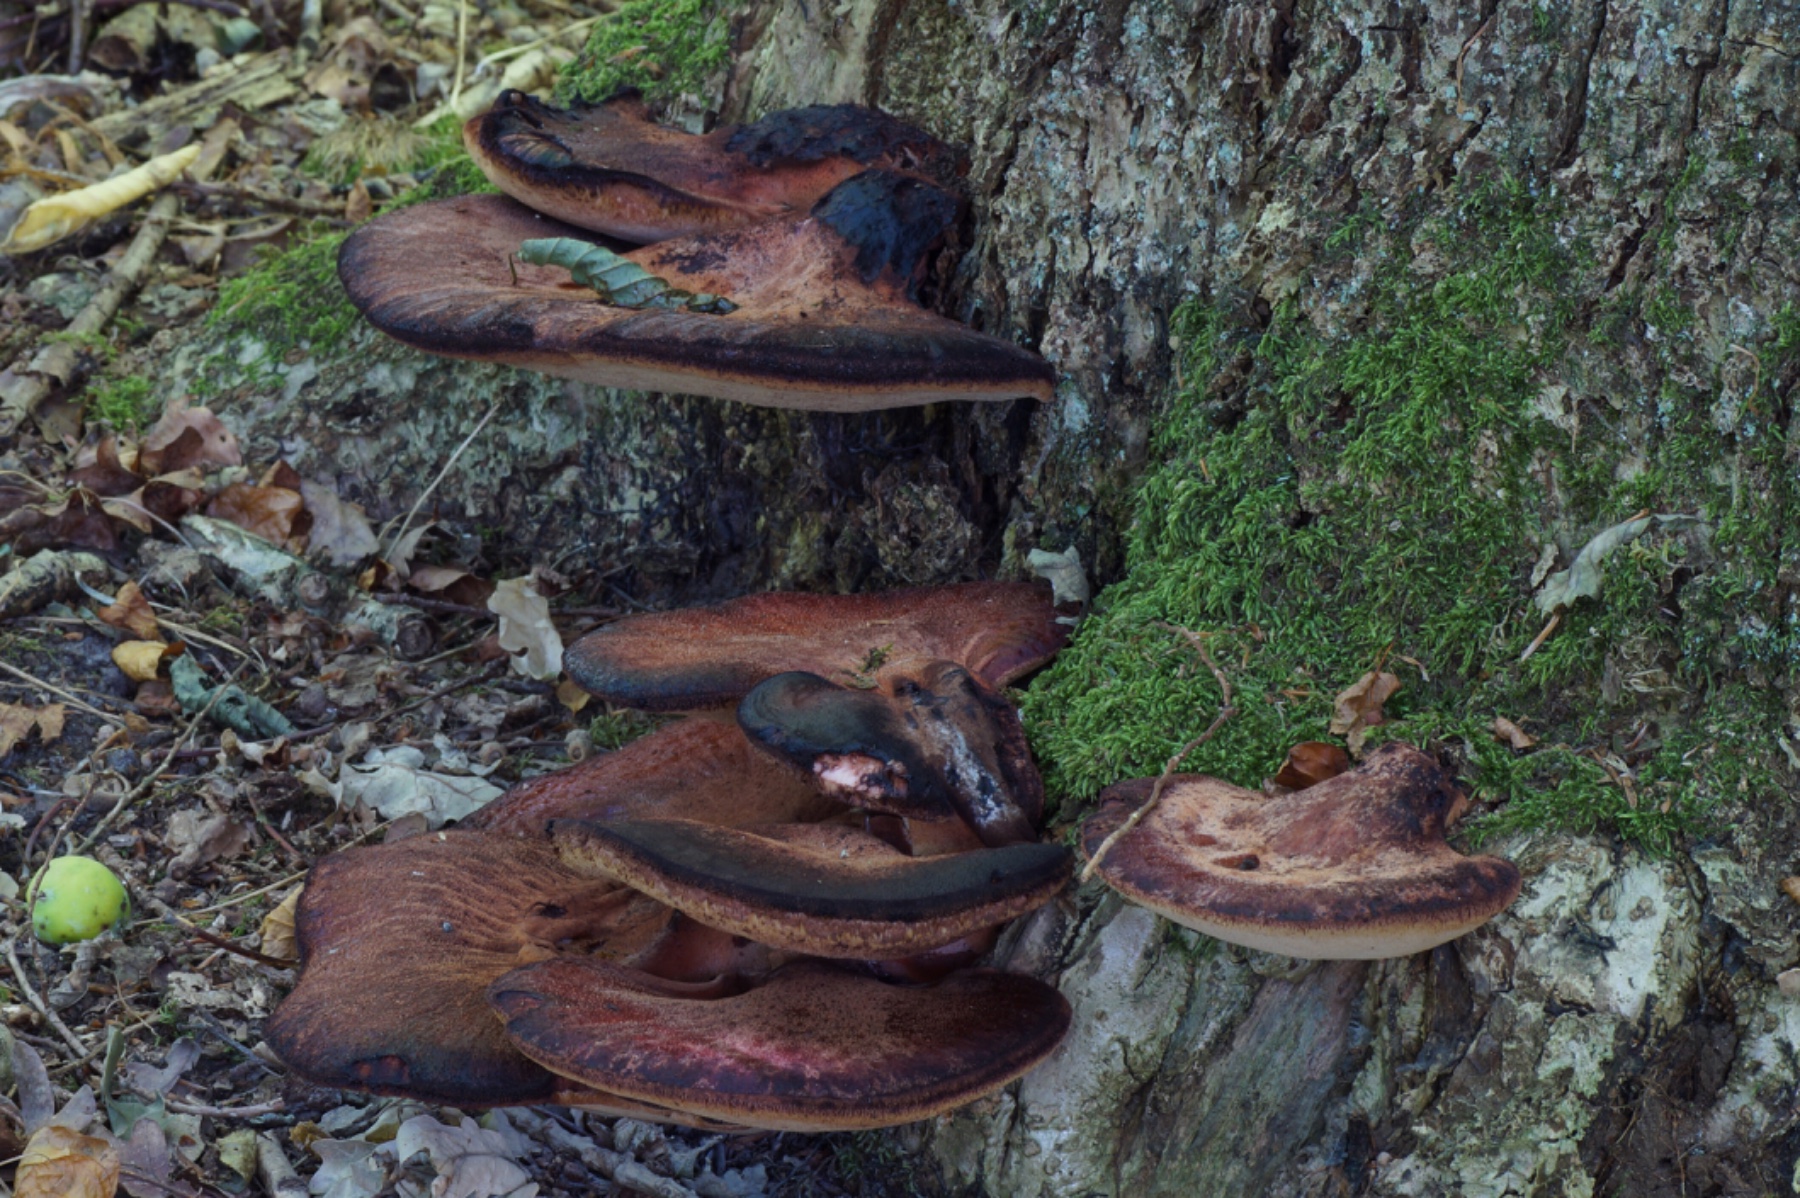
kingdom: Fungi
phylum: Basidiomycota
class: Agaricomycetes
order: Agaricales
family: Fistulinaceae
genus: Fistulina
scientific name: Fistulina hepatica
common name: oksetunge
